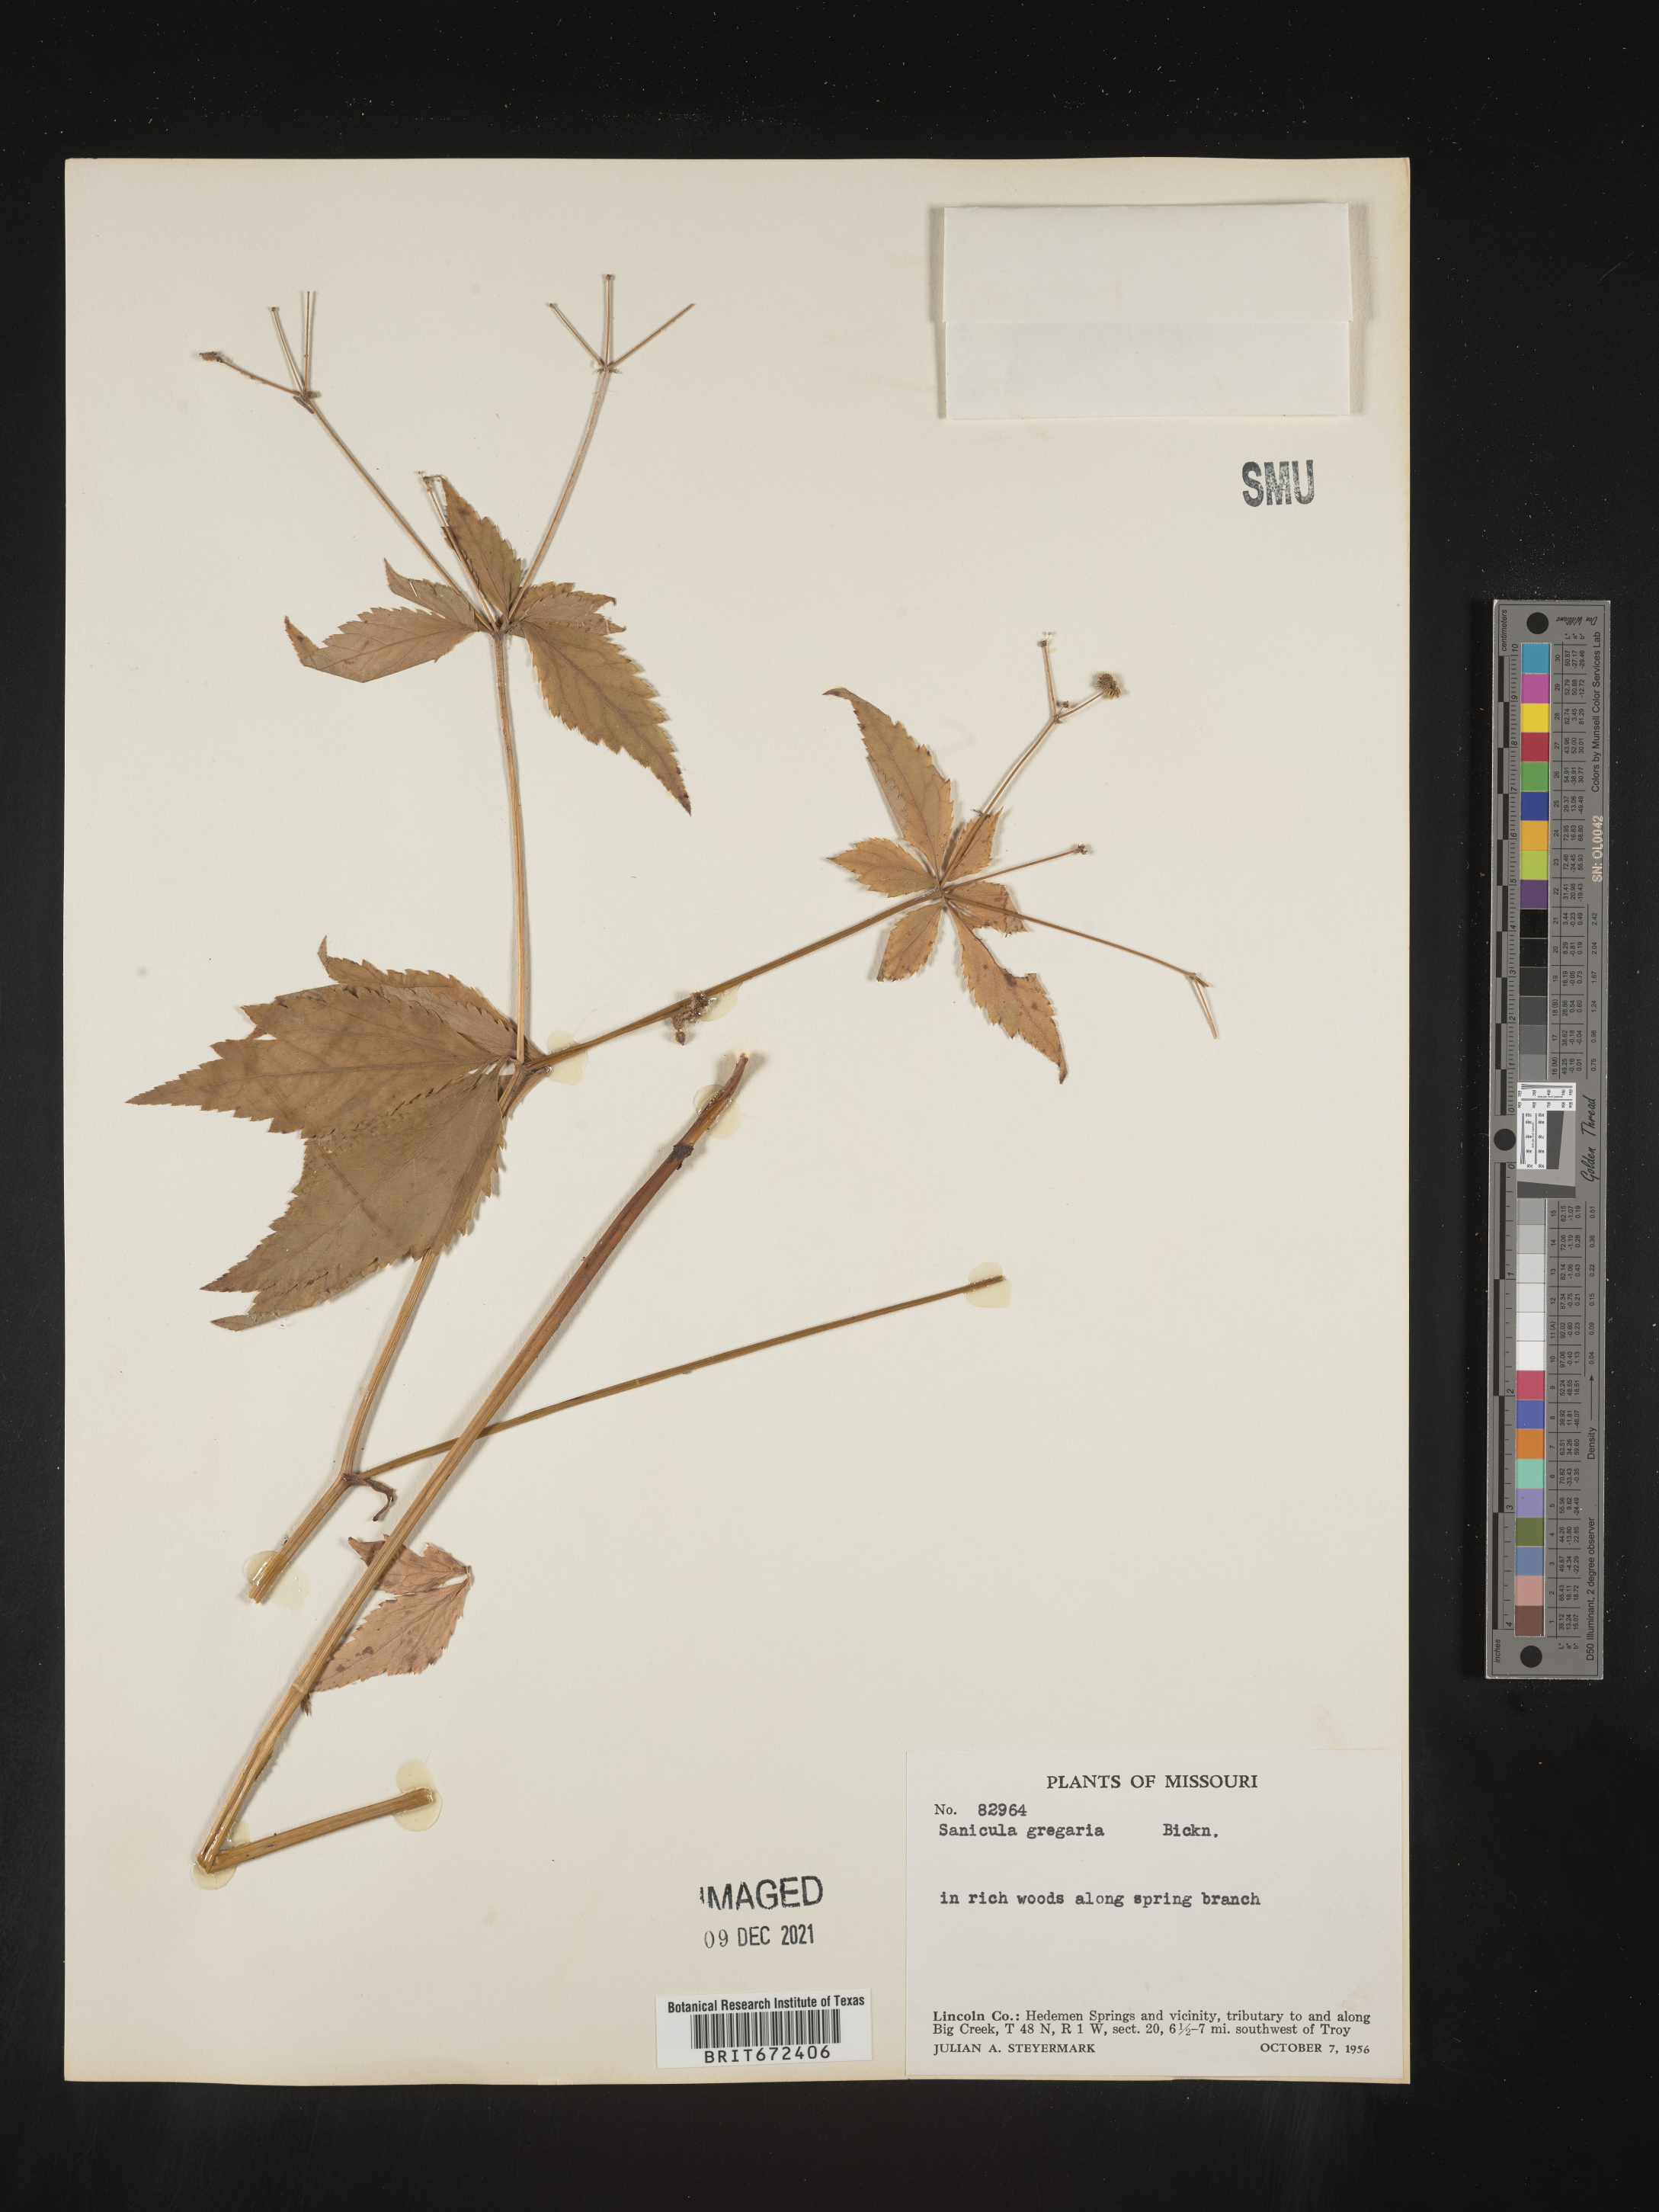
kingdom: Plantae
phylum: Tracheophyta
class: Magnoliopsida
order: Apiales
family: Apiaceae
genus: Sanicula
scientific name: Sanicula odorata
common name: Cluster sanicle
